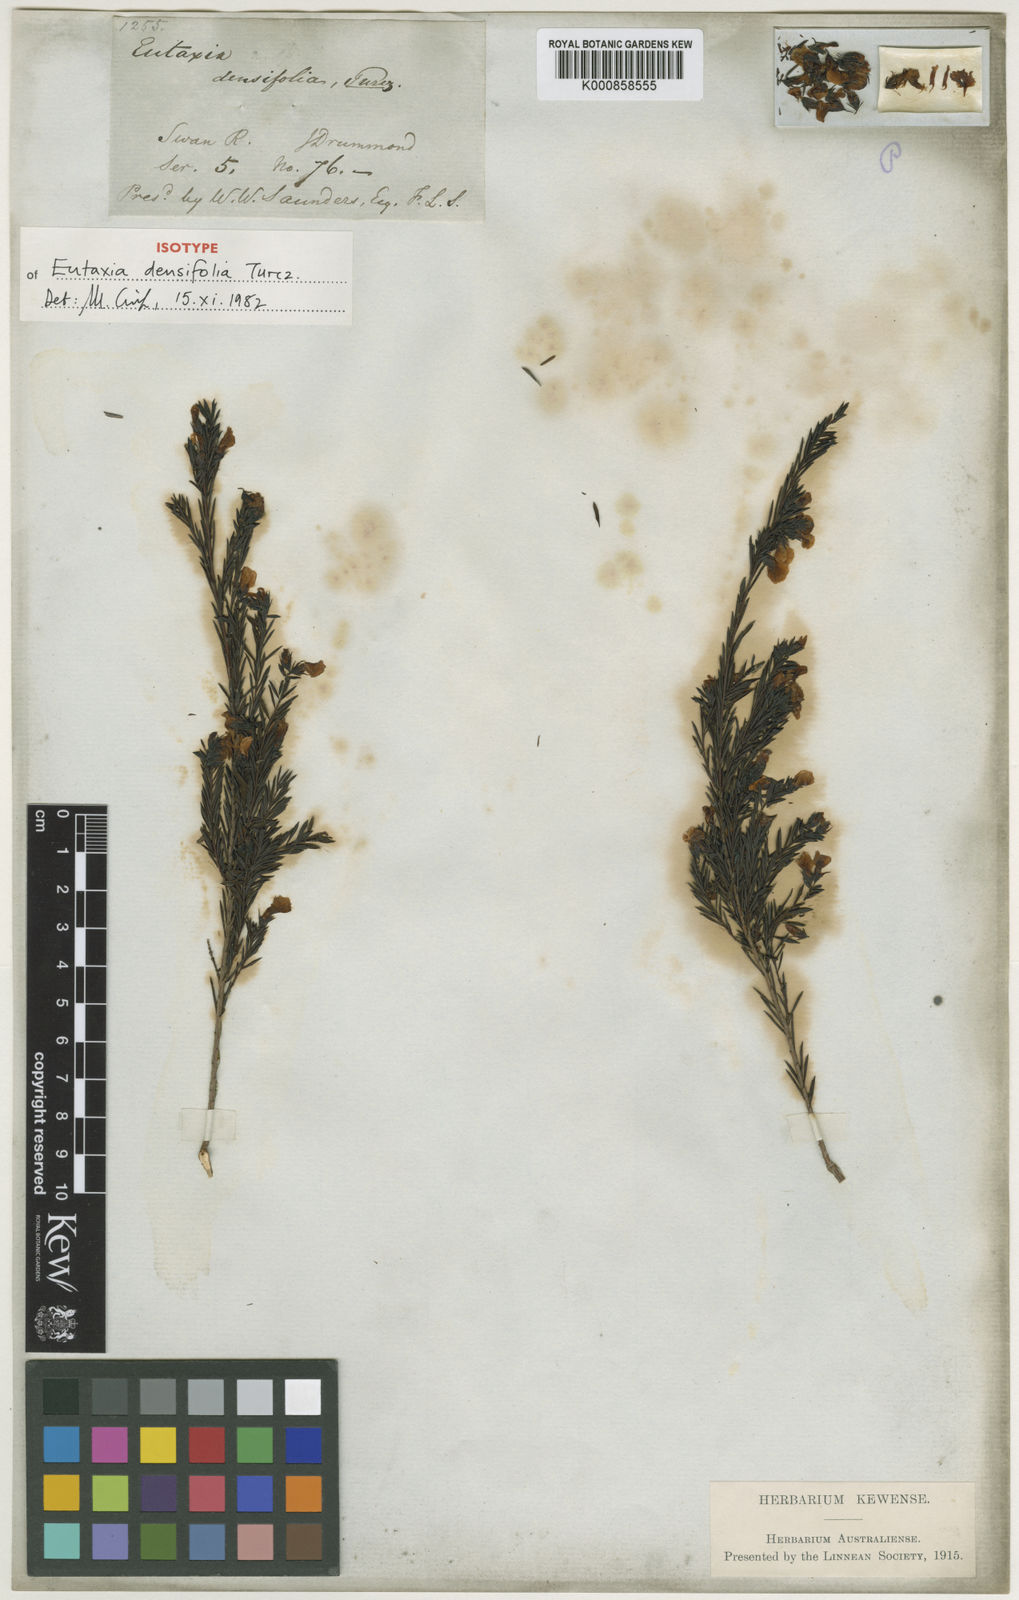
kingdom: Plantae
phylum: Tracheophyta
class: Magnoliopsida
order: Fabales
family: Fabaceae
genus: Eutaxia
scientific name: Eutaxia parvifolia
